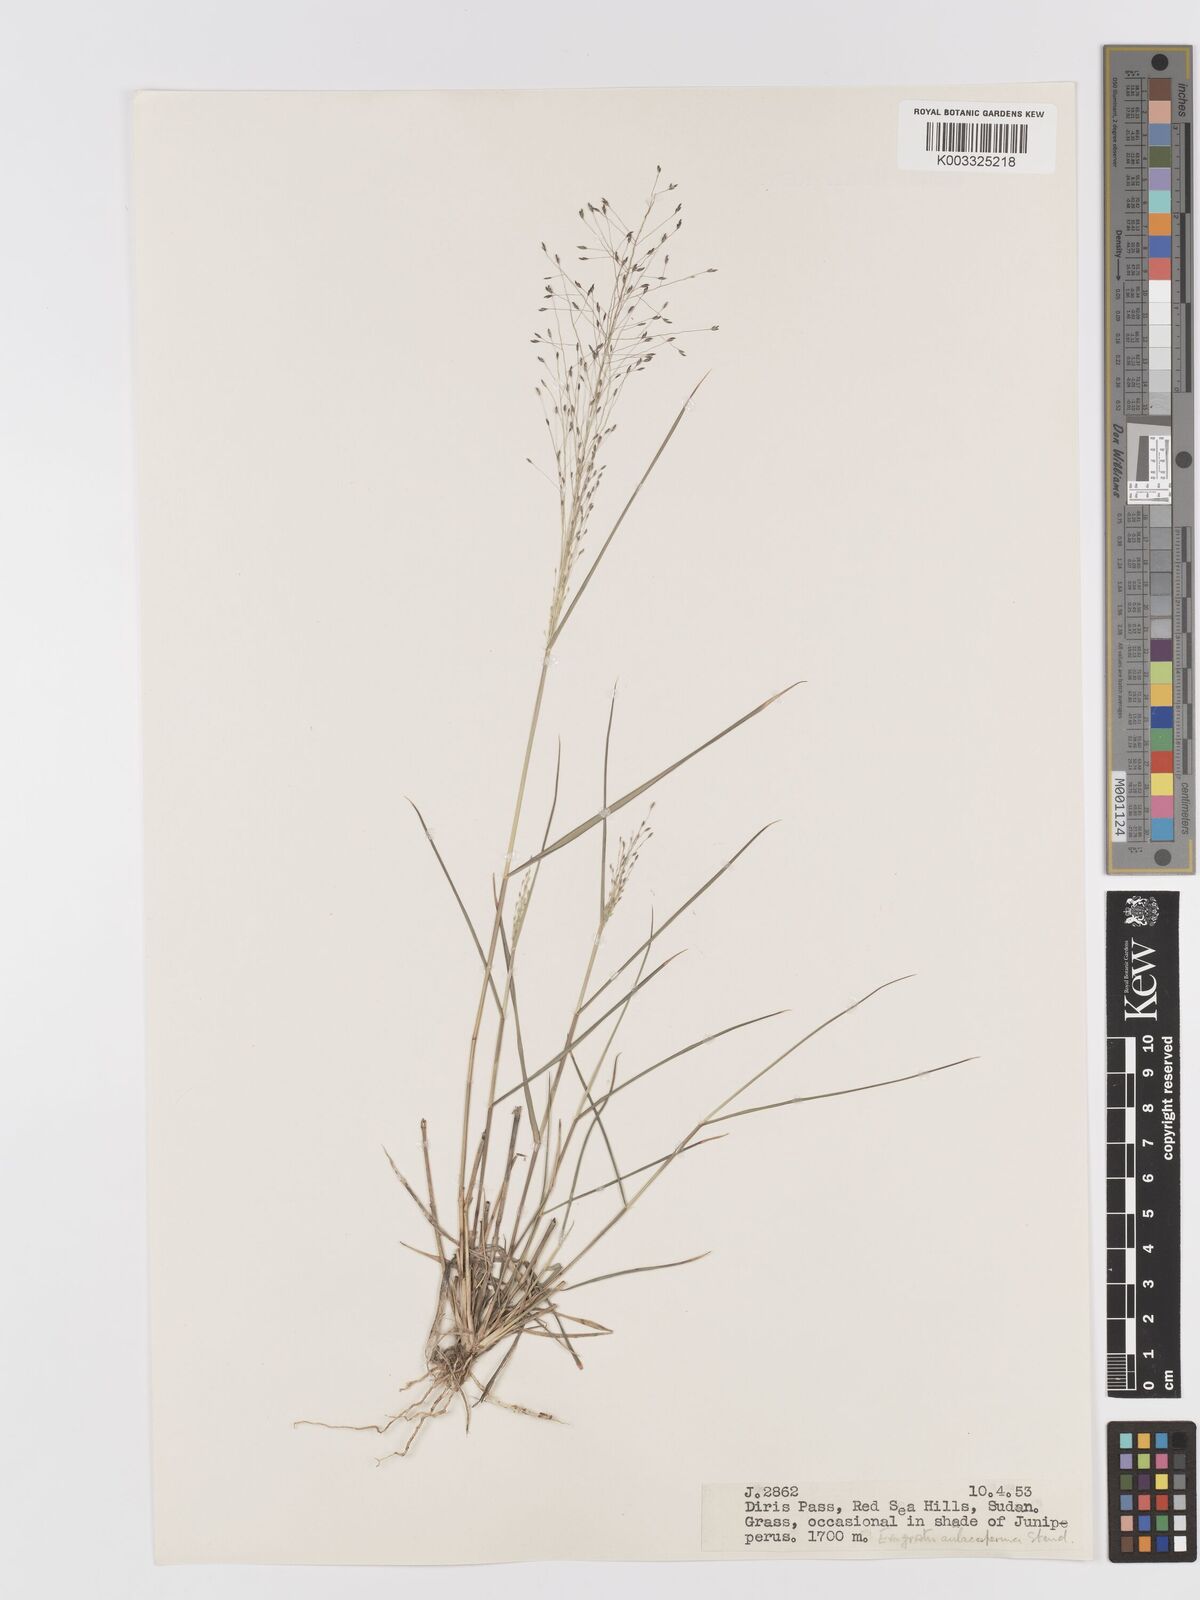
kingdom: Plantae
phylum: Tracheophyta
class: Liliopsida
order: Poales
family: Poaceae
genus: Eragrostis
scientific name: Eragrostis papposa
